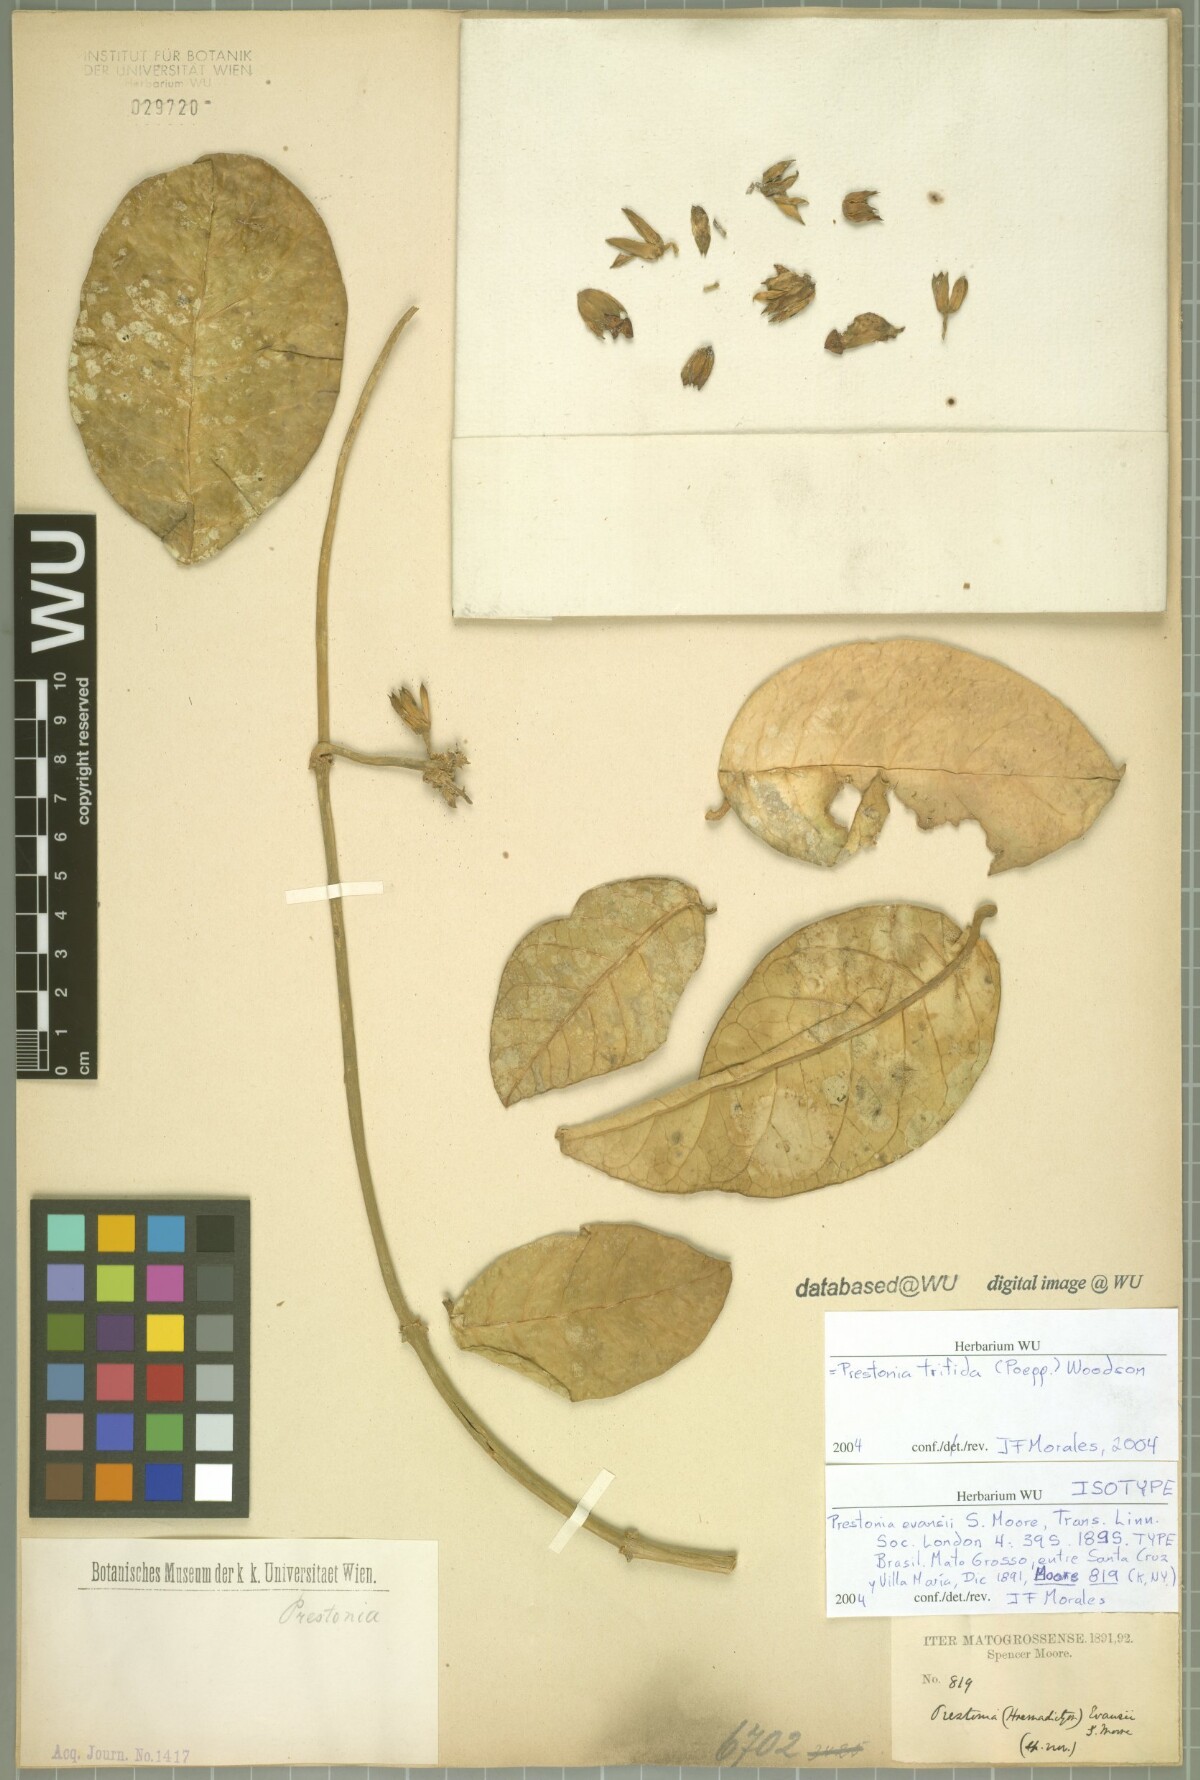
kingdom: Plantae
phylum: Tracheophyta
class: Magnoliopsida
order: Gentianales
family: Apocynaceae
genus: Prestonia
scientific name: Prestonia trifida
